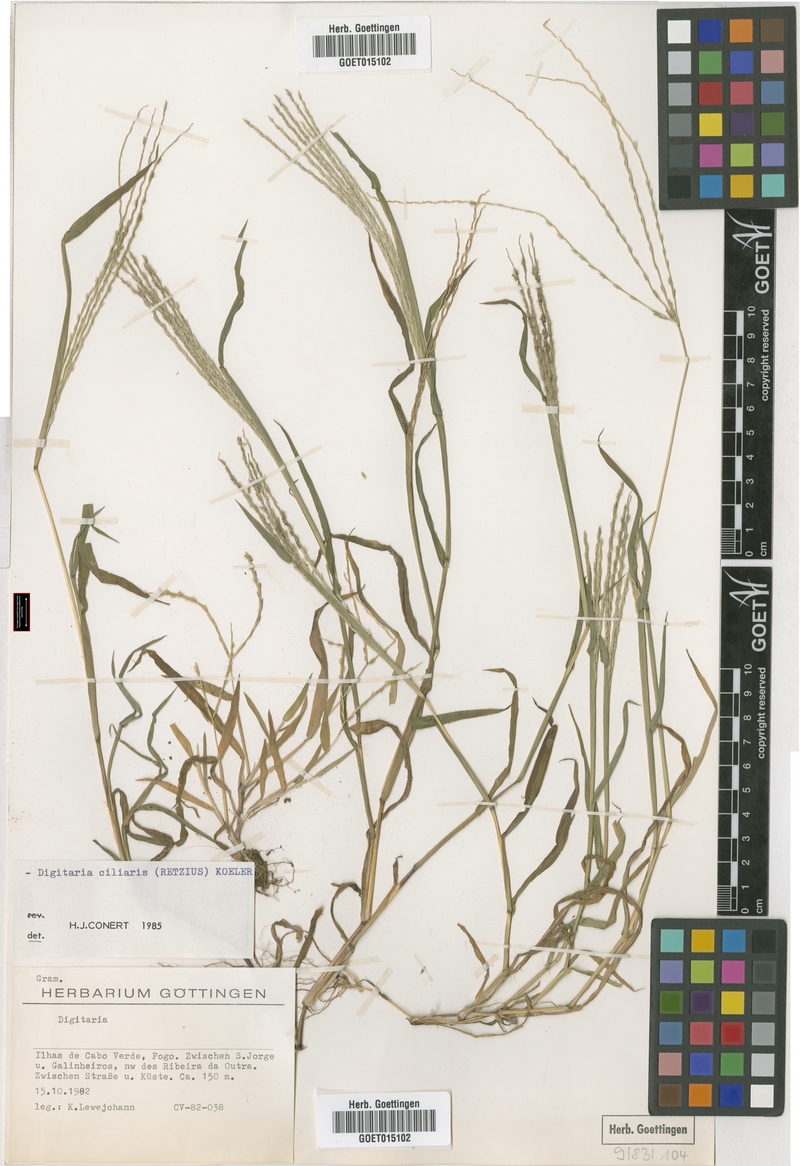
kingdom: Plantae
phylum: Tracheophyta
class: Liliopsida
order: Poales
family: Poaceae
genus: Digitaria
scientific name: Digitaria ciliaris
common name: Tropical finger-grass
